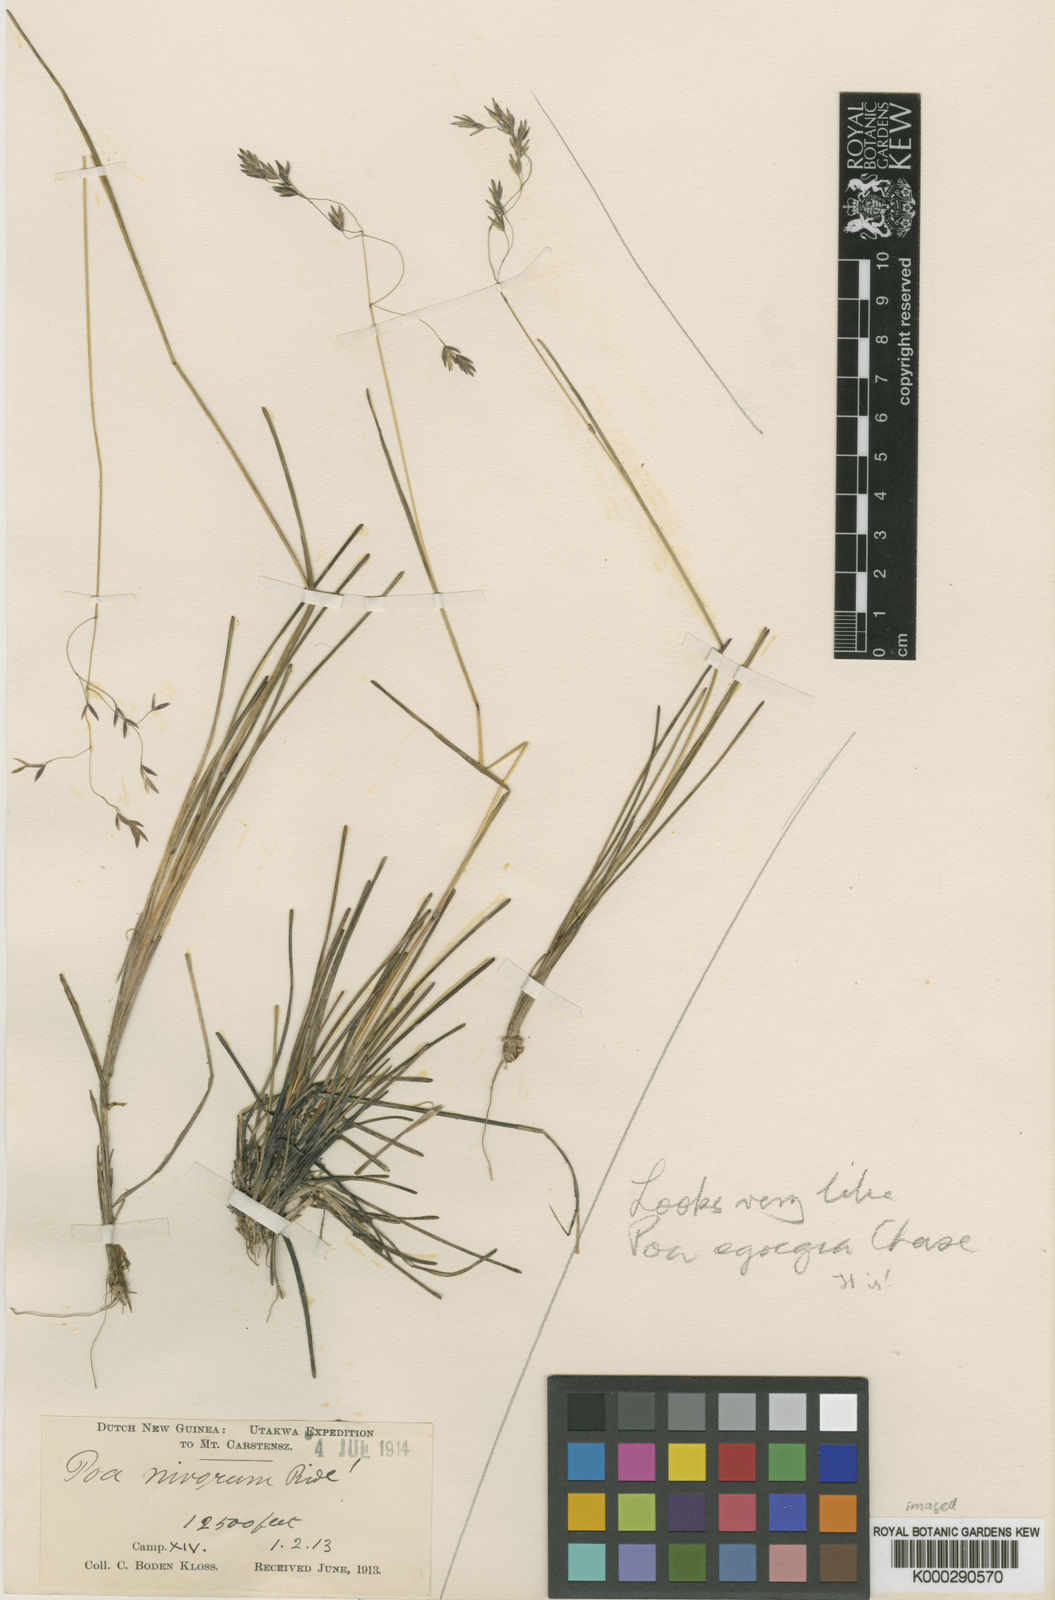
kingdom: Plantae
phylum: Tracheophyta
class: Liliopsida
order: Poales
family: Poaceae
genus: Poa
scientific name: Poa nivicola
